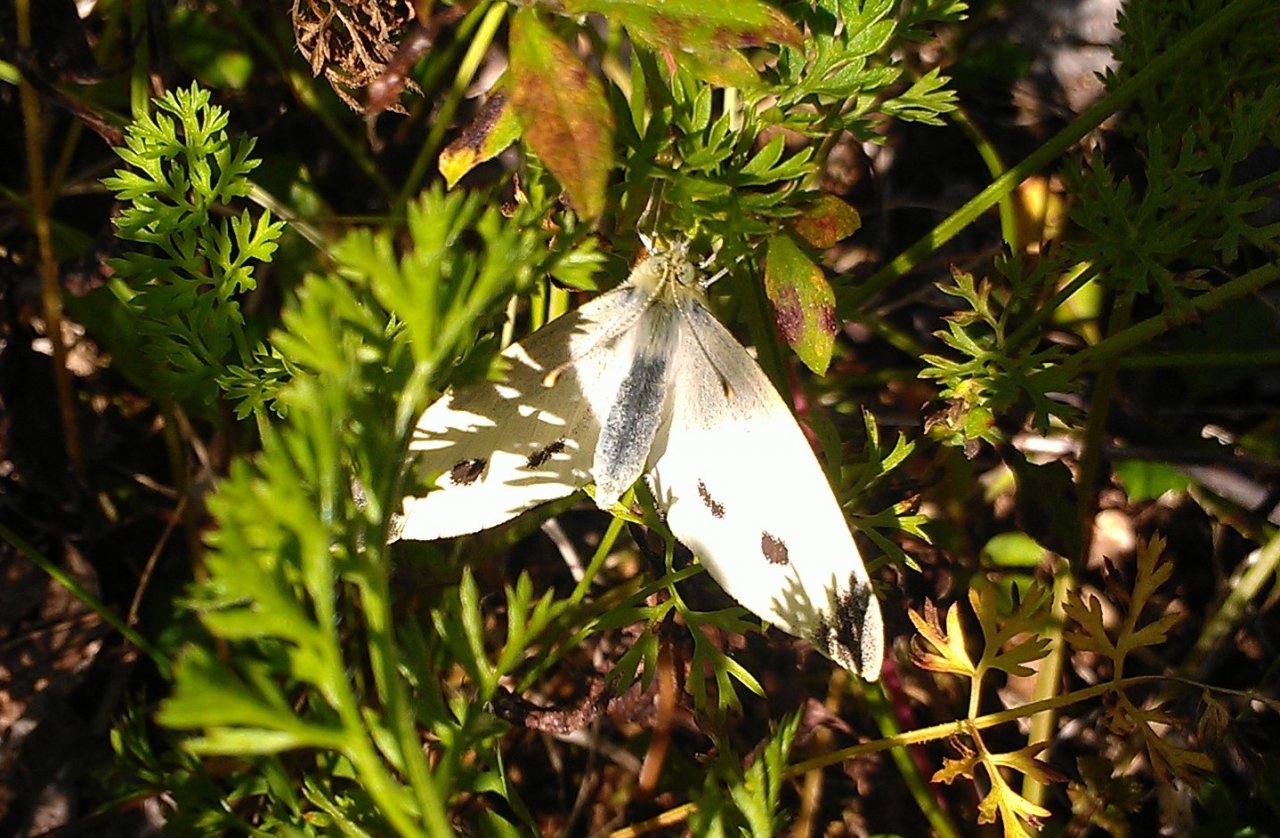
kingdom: Animalia
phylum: Arthropoda
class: Insecta
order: Lepidoptera
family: Pieridae
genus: Pieris
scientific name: Pieris rapae
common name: Cabbage White
